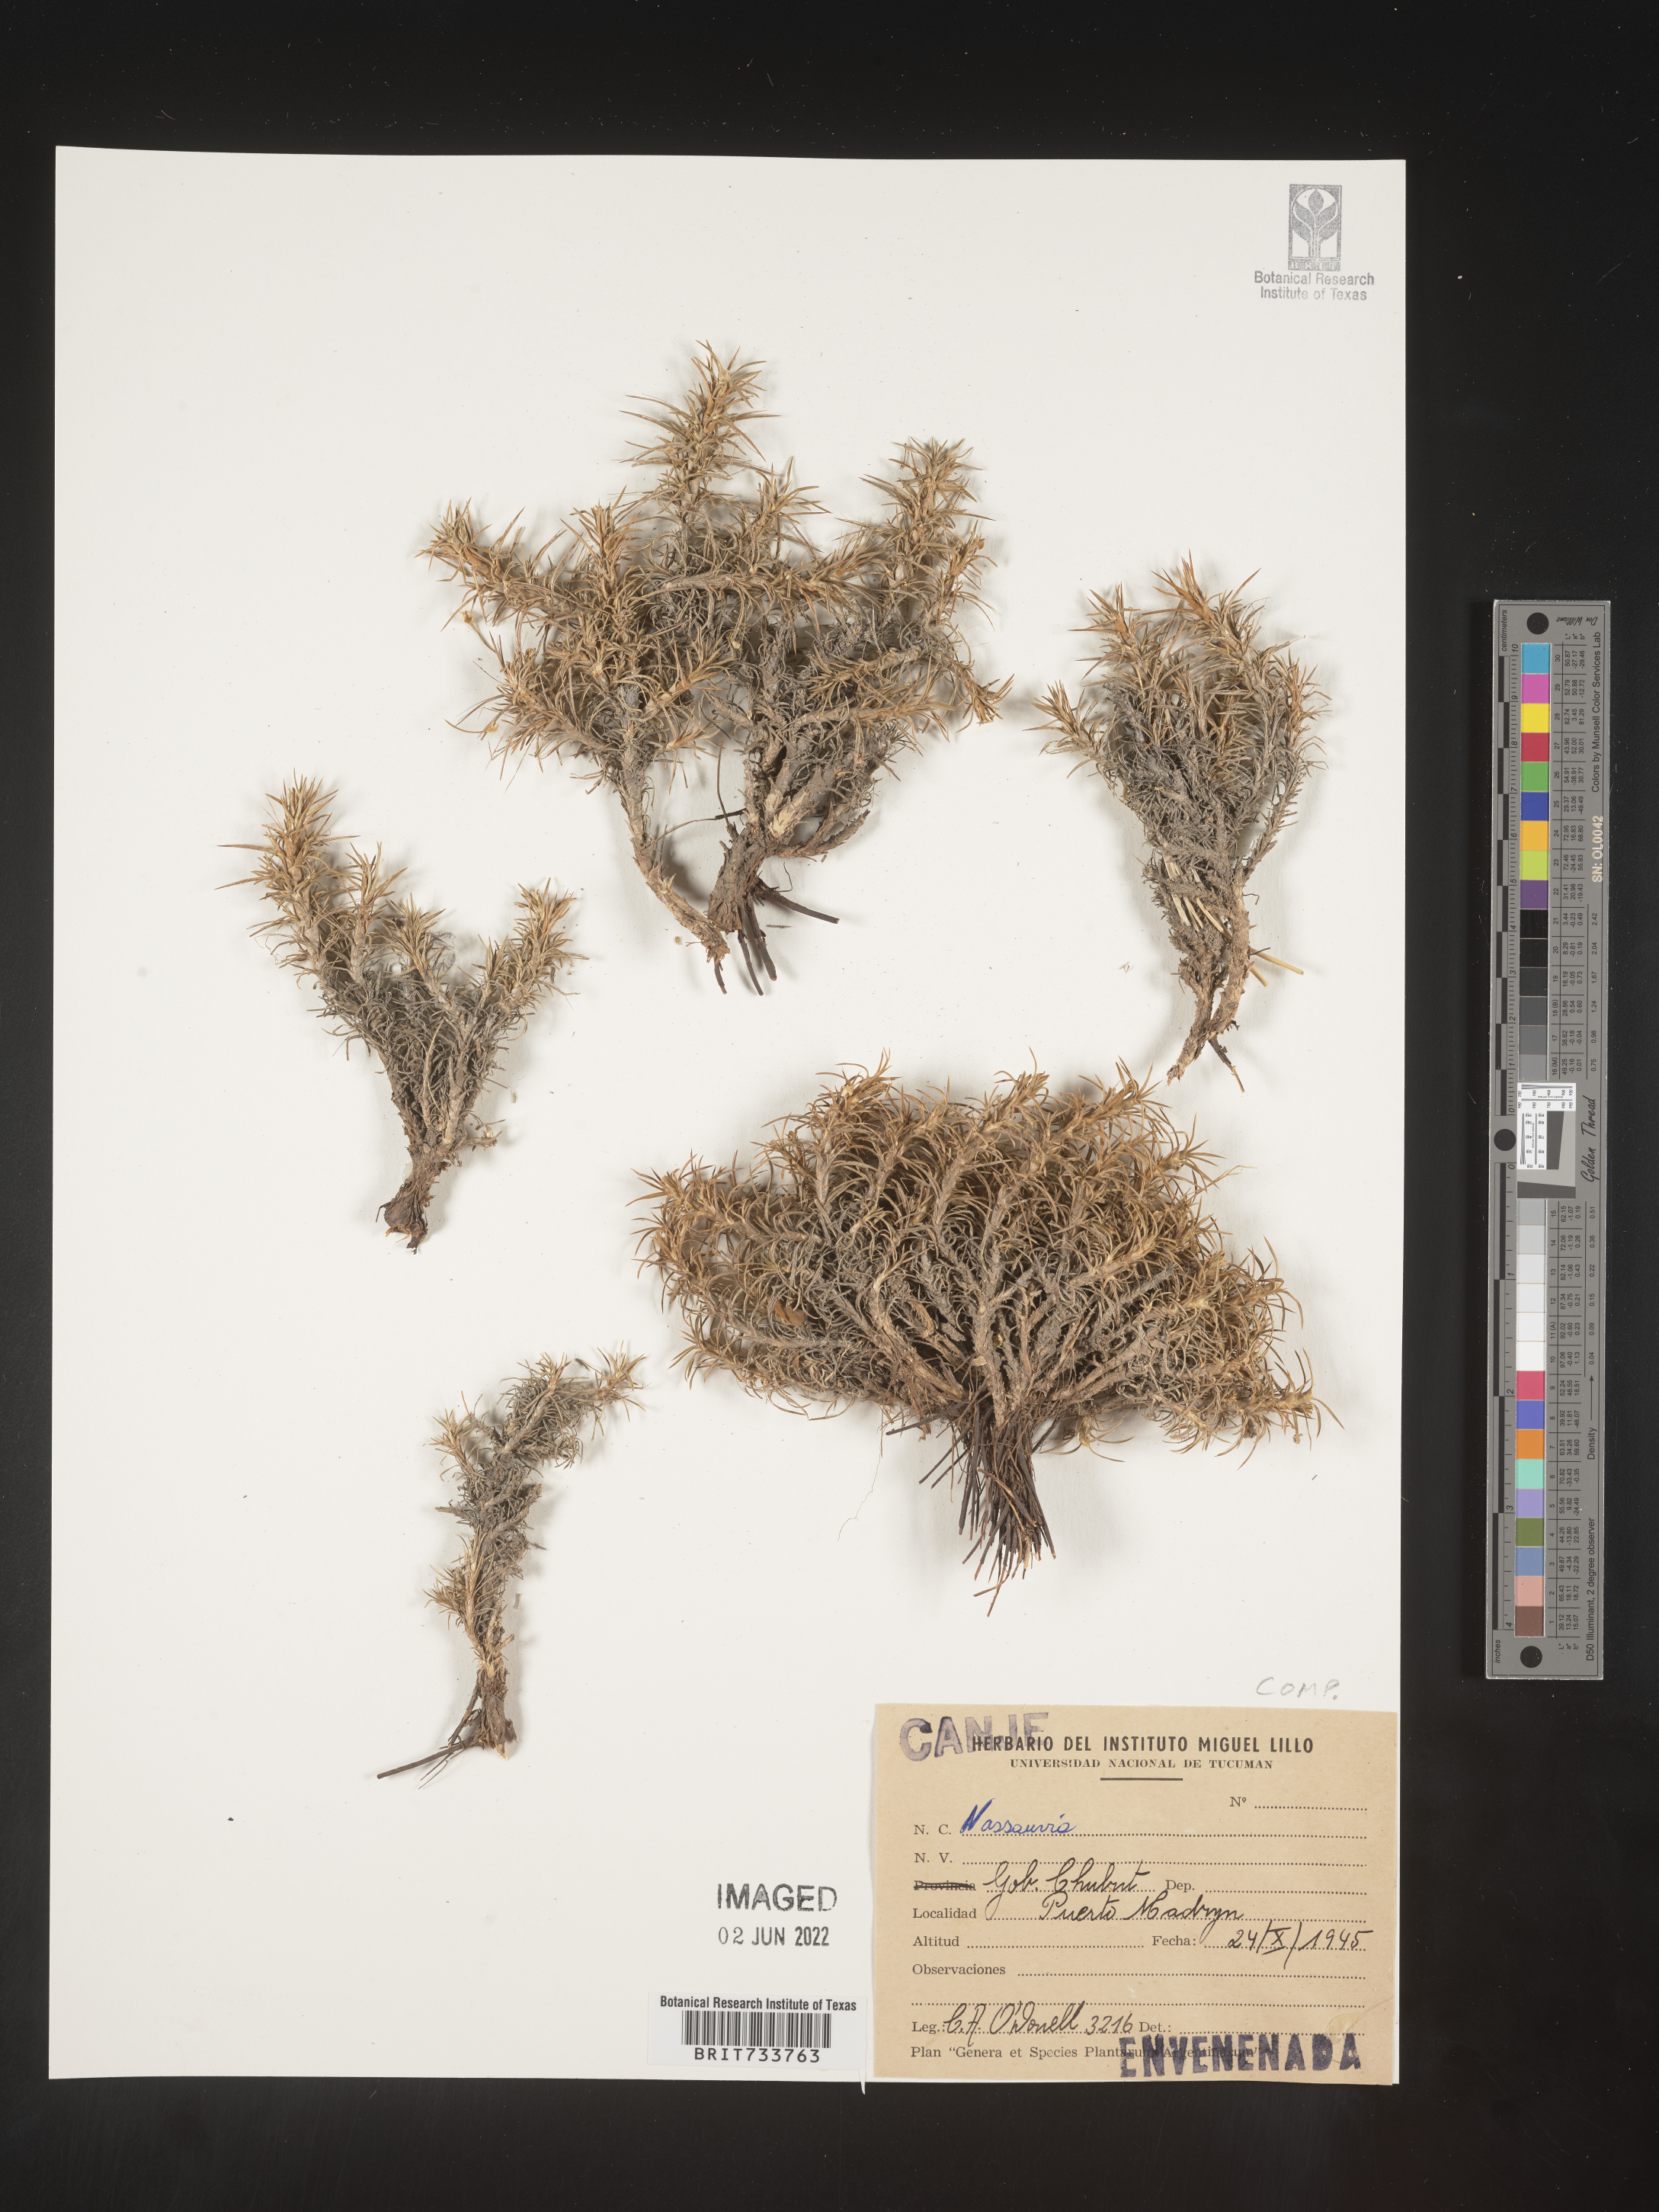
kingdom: Plantae
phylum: Tracheophyta
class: Magnoliopsida
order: Asterales
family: Asteraceae
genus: Nassauvia
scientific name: Nassauvia
